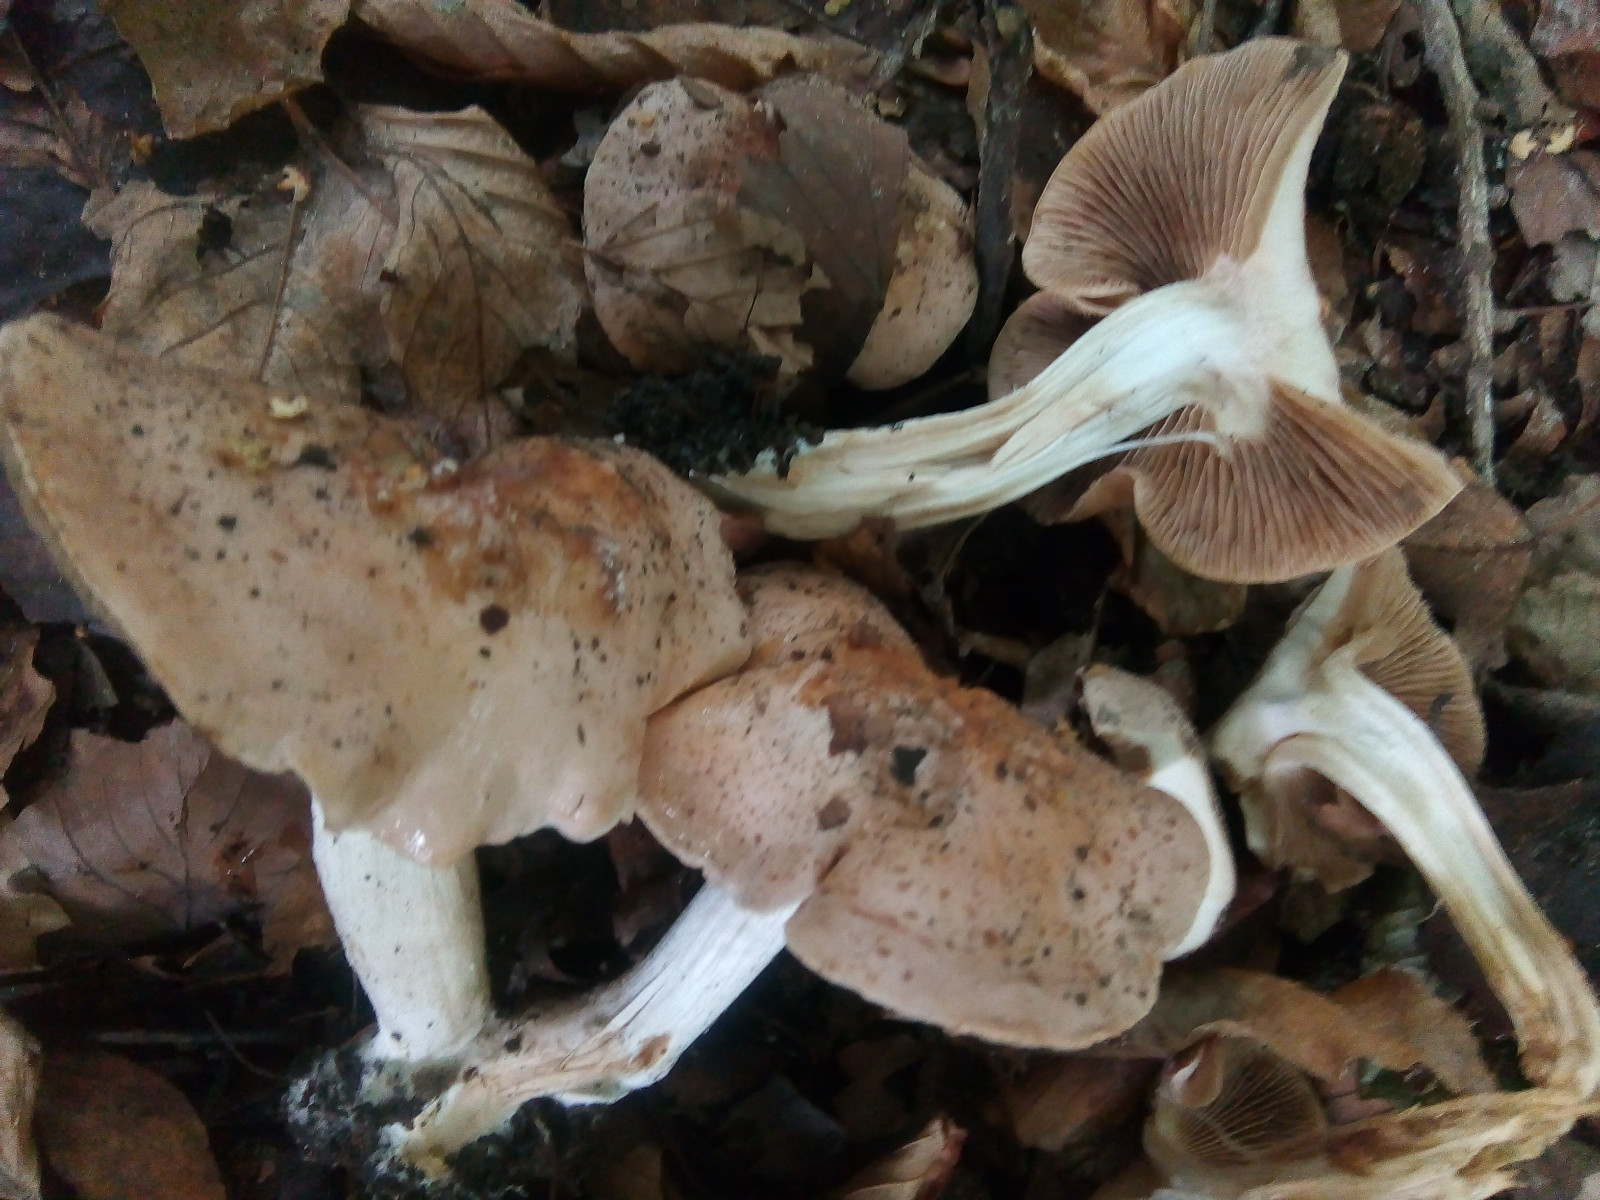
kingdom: Fungi
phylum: Basidiomycota
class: Agaricomycetes
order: Agaricales
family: Hymenogastraceae
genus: Hebeloma
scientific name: Hebeloma sinapizans
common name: ræddike-tåreblad
